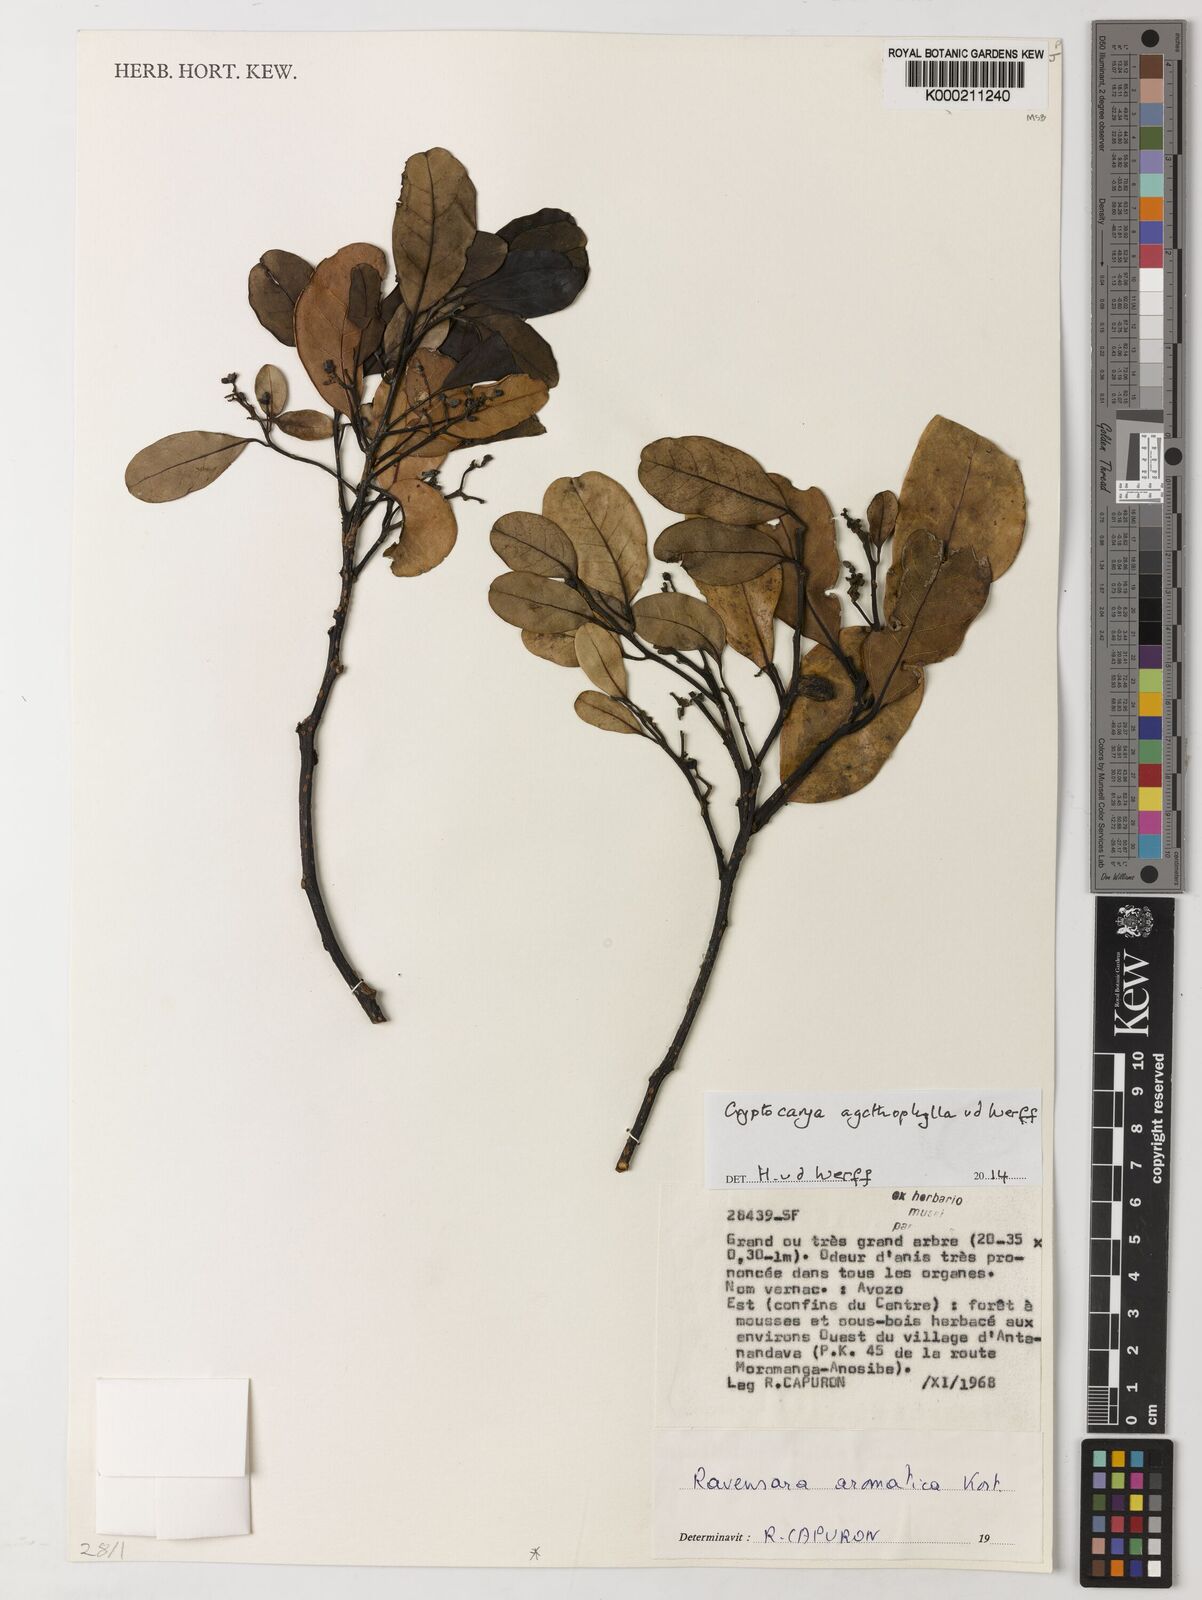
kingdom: Plantae
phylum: Tracheophyta
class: Magnoliopsida
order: Laurales
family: Lauraceae
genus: Cryptocarya
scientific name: Cryptocarya agathophylla
